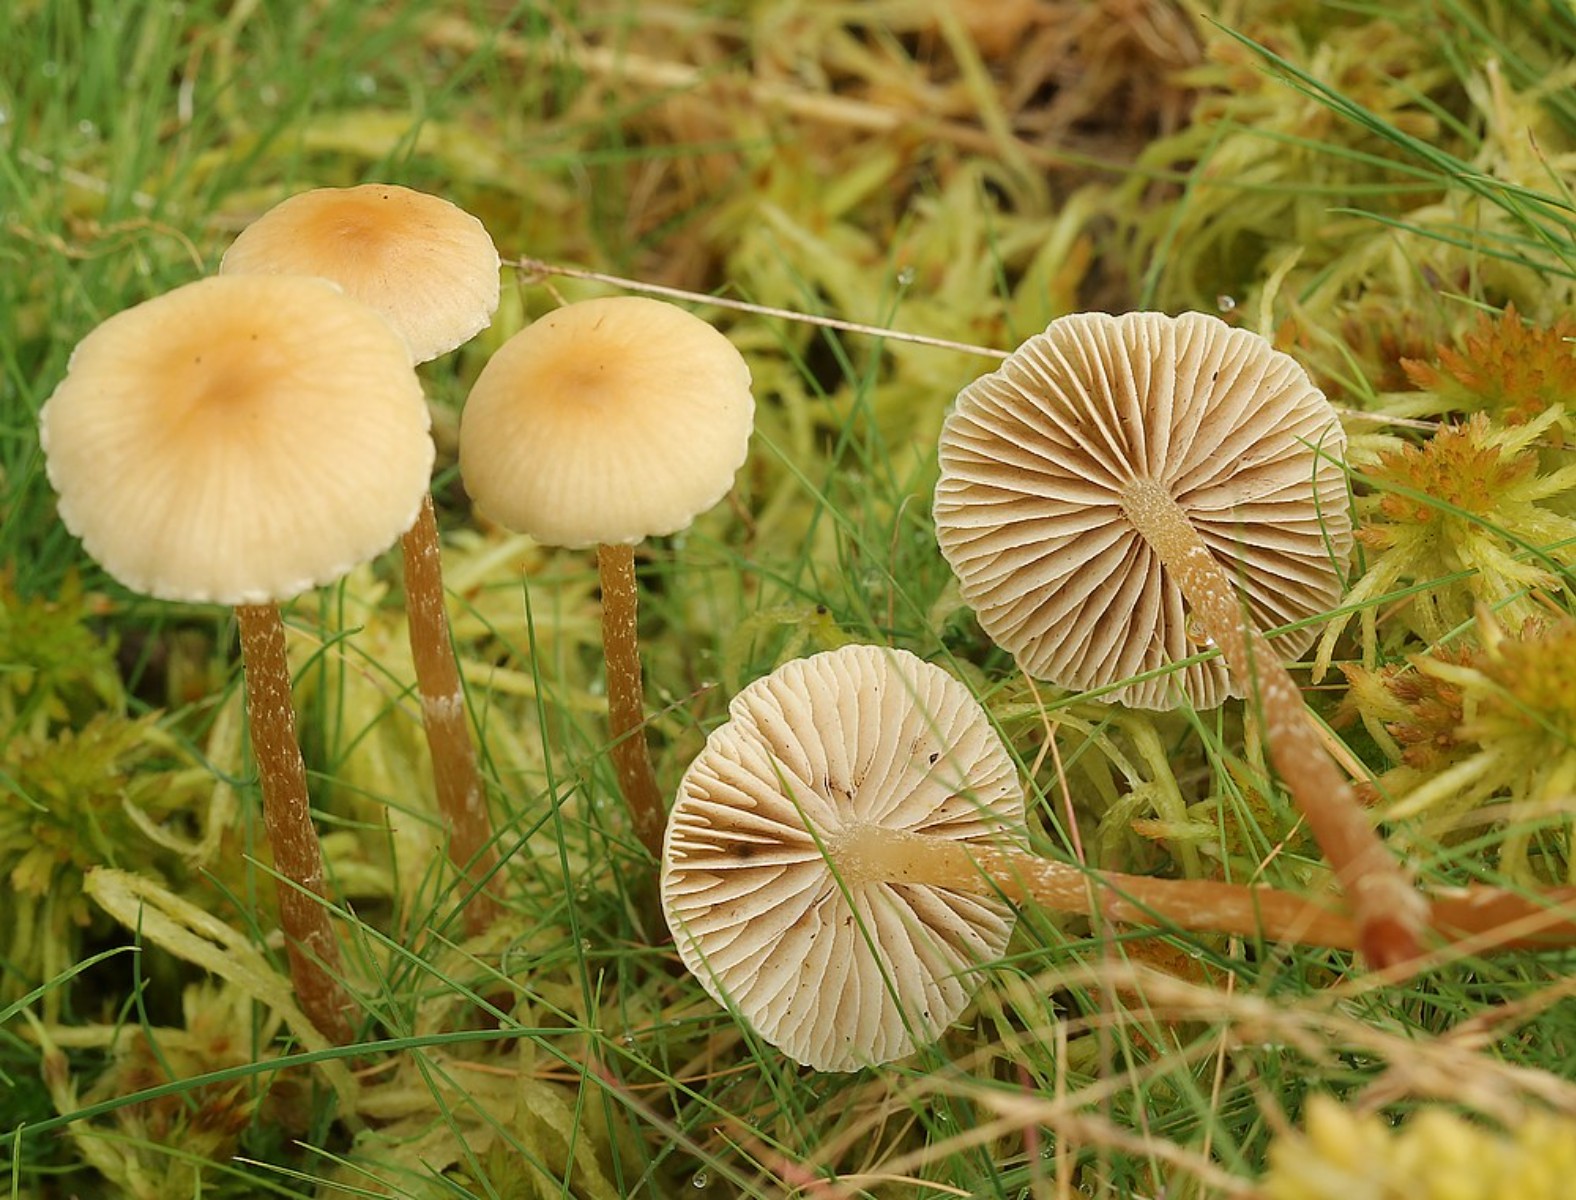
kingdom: Fungi
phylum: Basidiomycota
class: Agaricomycetes
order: Agaricales
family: Strophariaceae
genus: Hypholoma
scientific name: Hypholoma elongatum
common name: slank svovlhat
